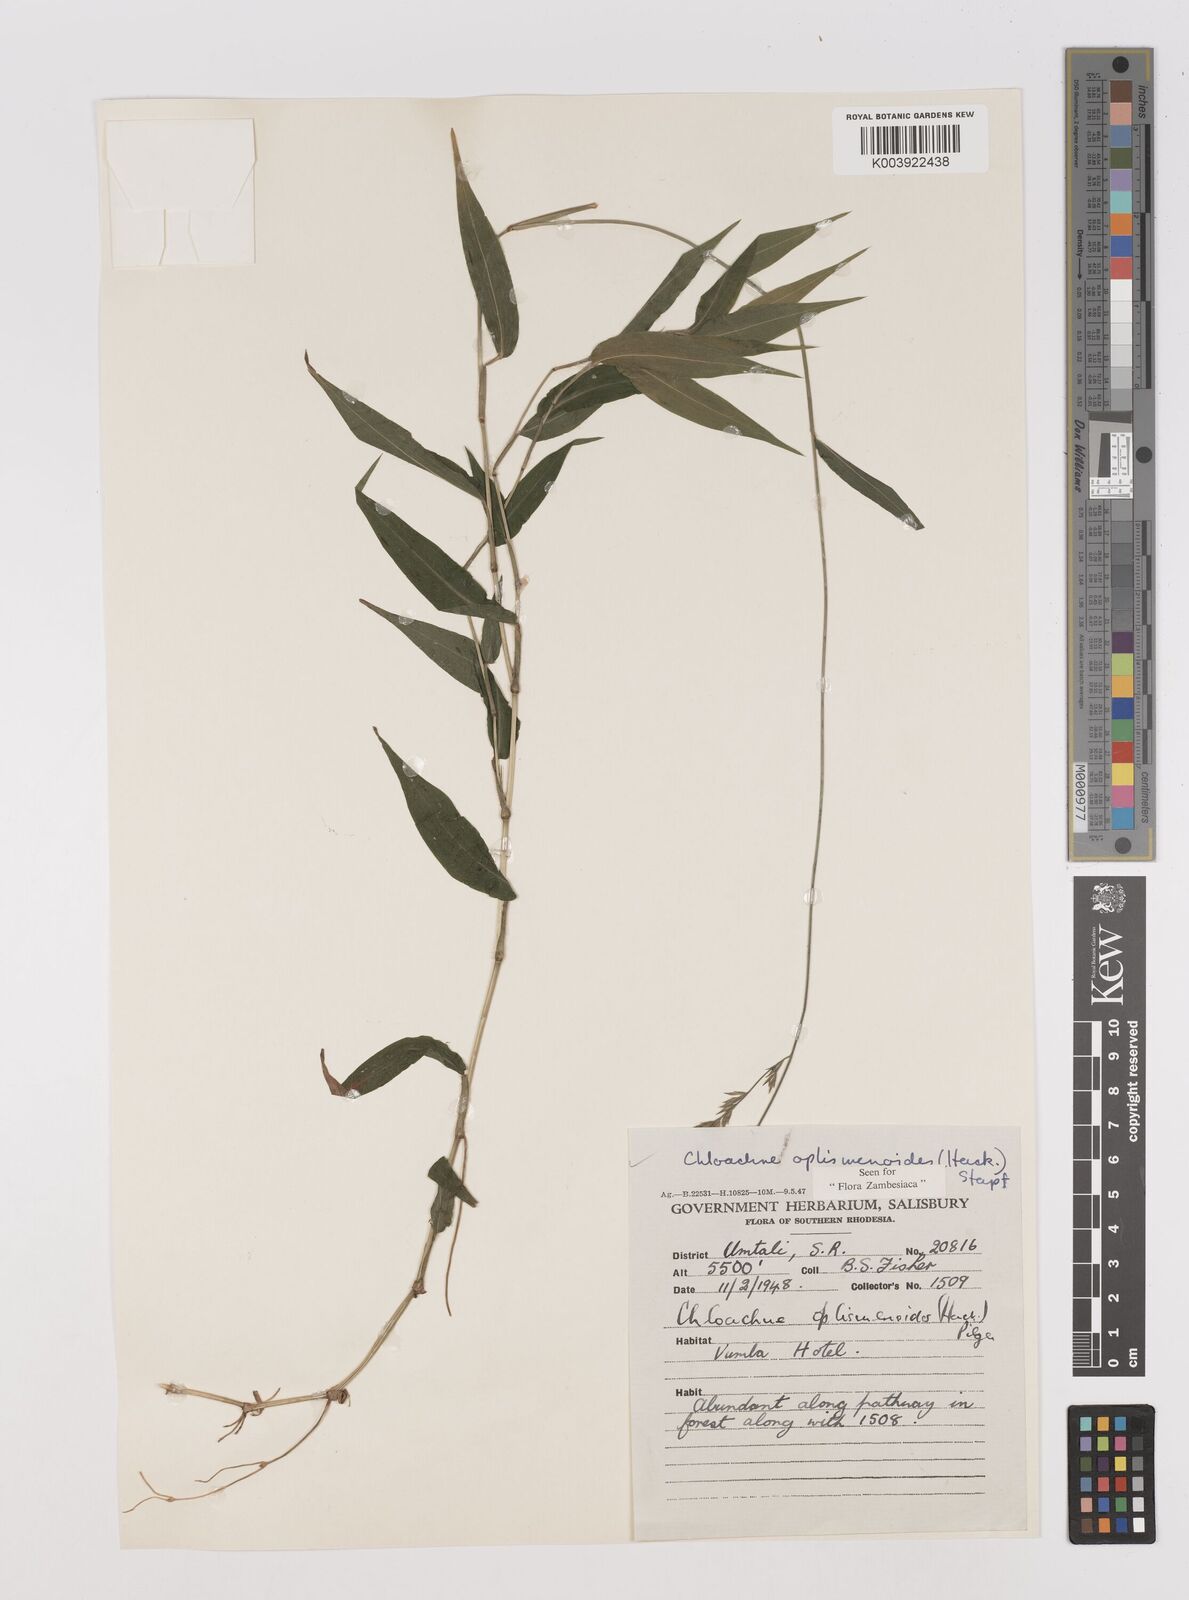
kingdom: Plantae
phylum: Tracheophyta
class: Liliopsida
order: Poales
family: Poaceae
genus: Poecilostachys
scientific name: Poecilostachys oplismenoides
